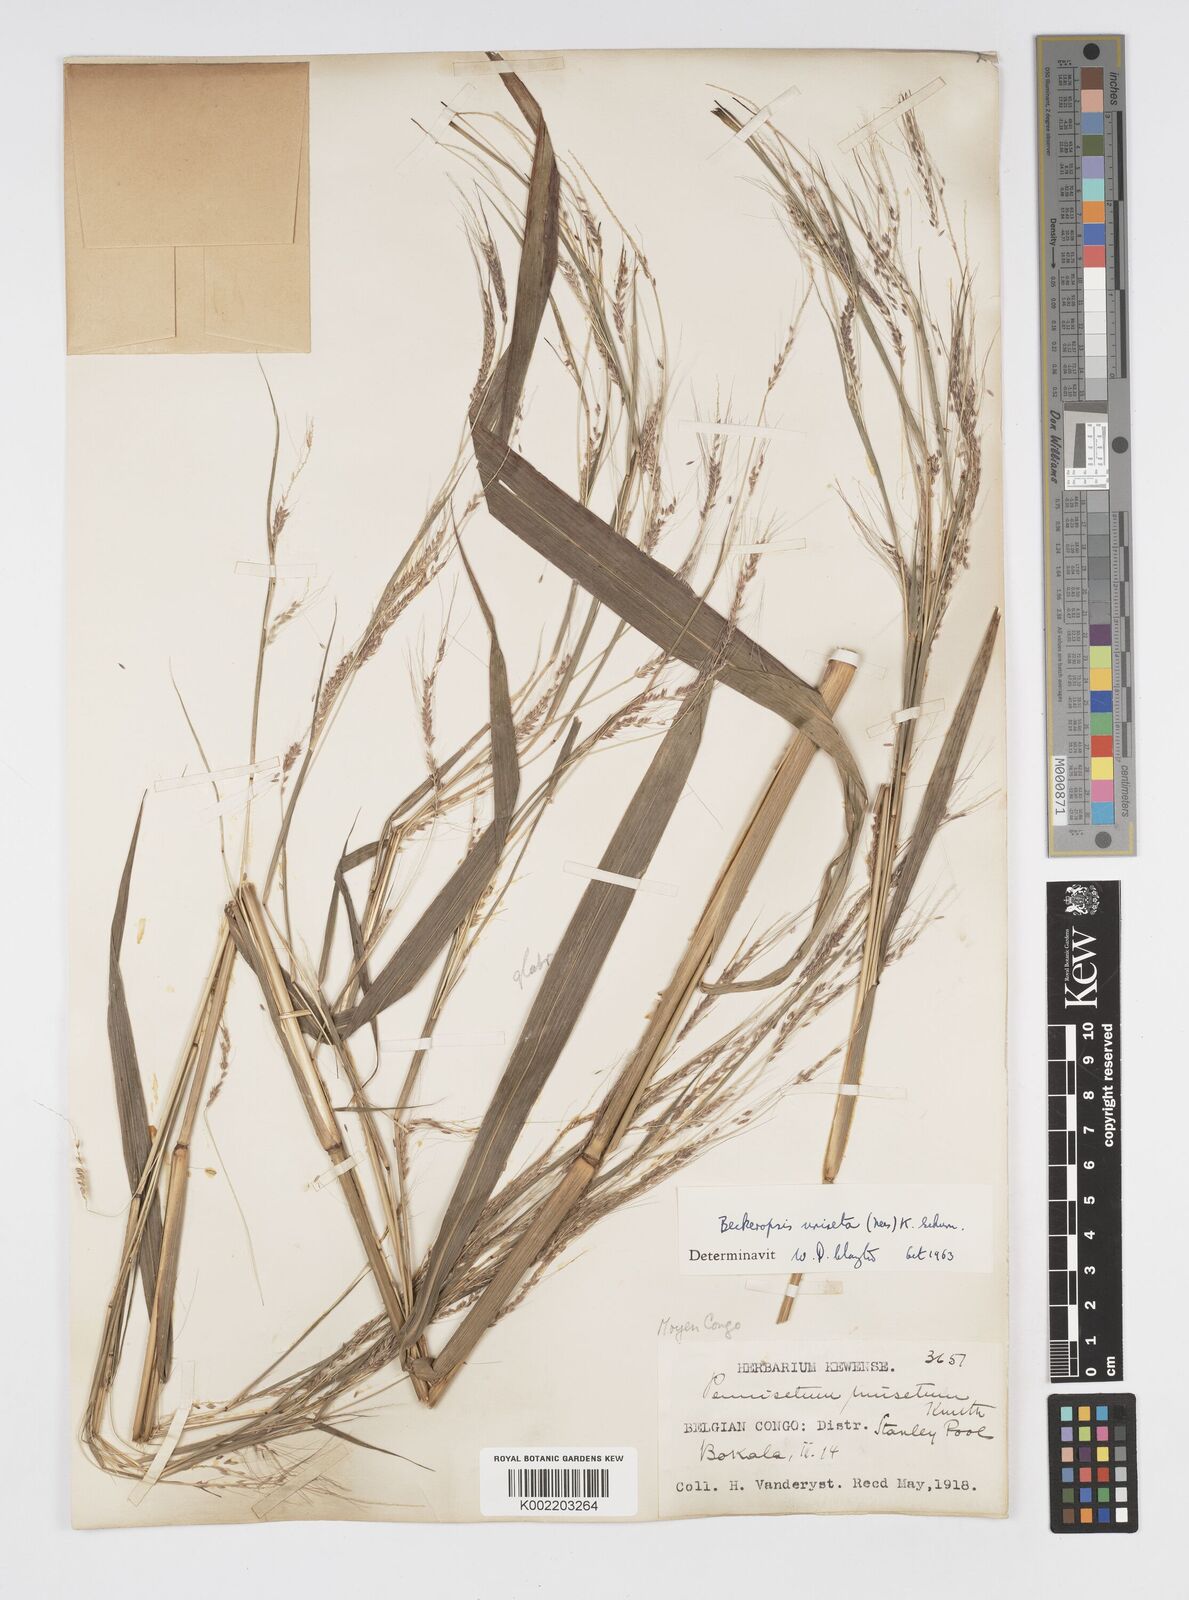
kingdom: Plantae
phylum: Tracheophyta
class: Liliopsida
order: Poales
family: Poaceae
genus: Cenchrus
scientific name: Cenchrus unisetus
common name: Natal grass
